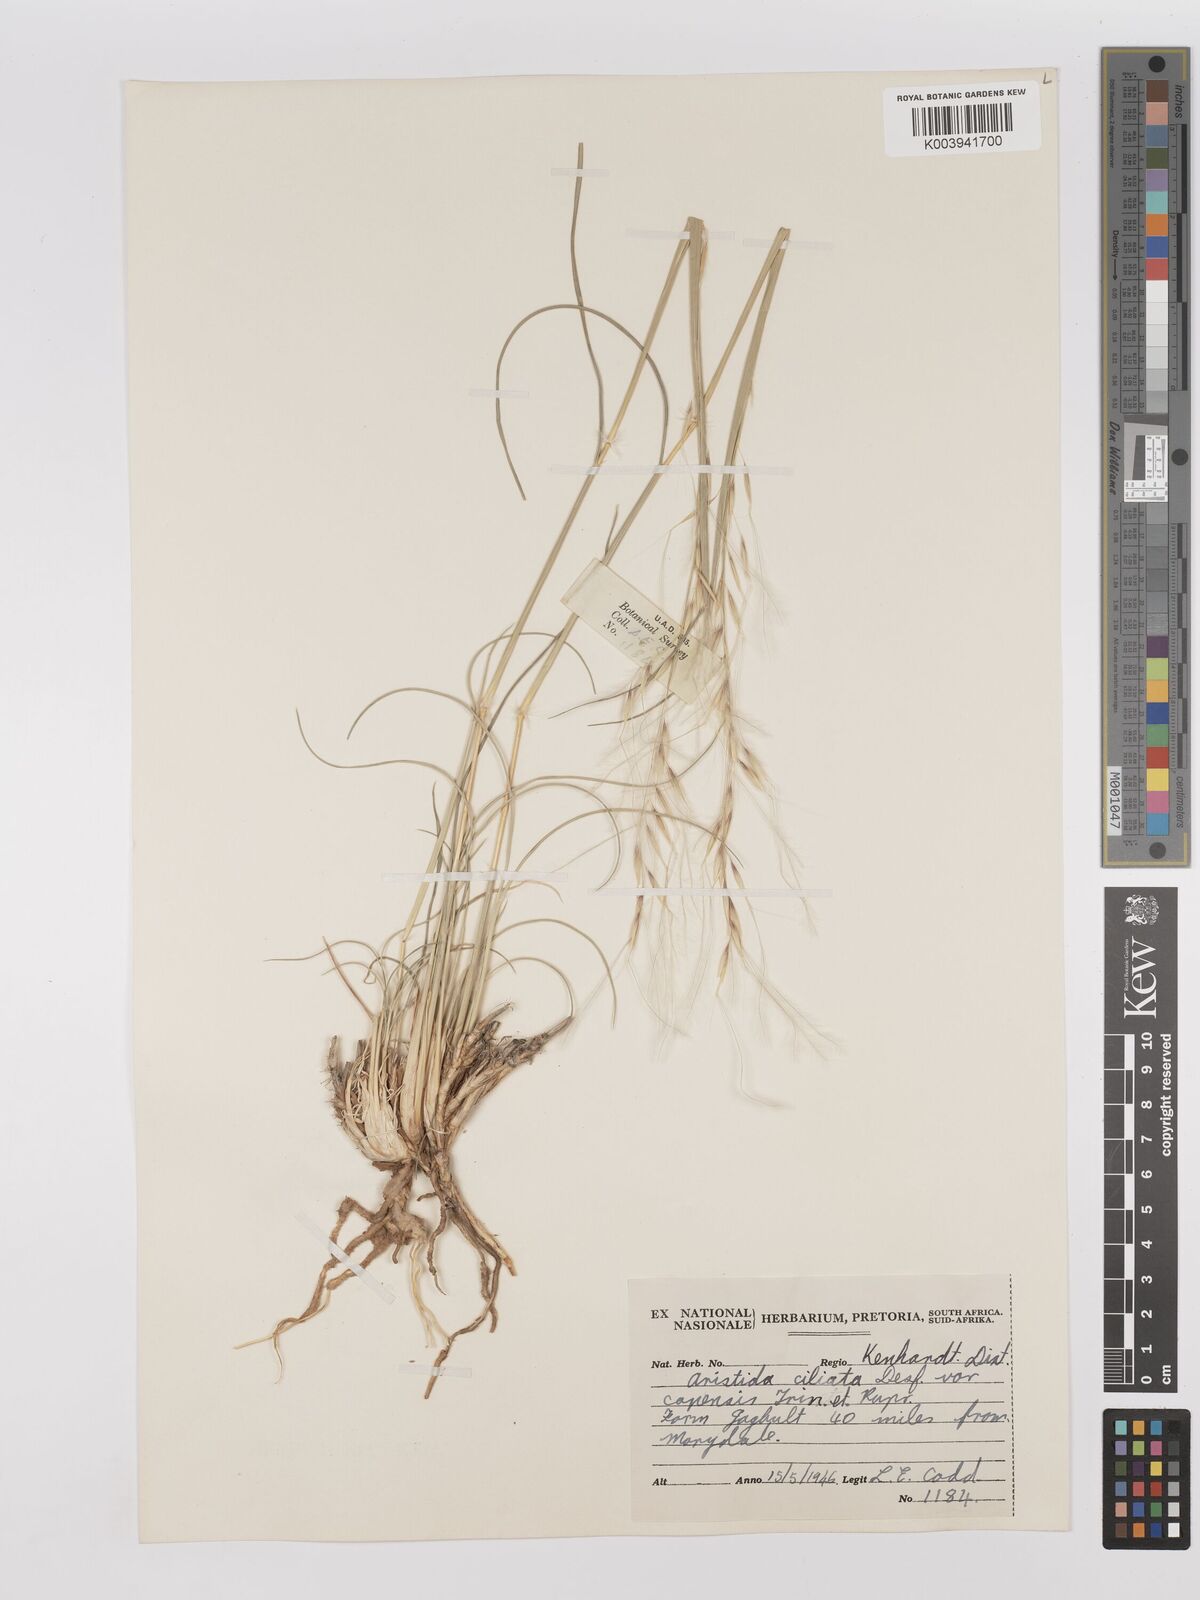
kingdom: Plantae
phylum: Tracheophyta
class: Liliopsida
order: Poales
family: Poaceae
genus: Stipagrostis
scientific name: Stipagrostis ciliata
